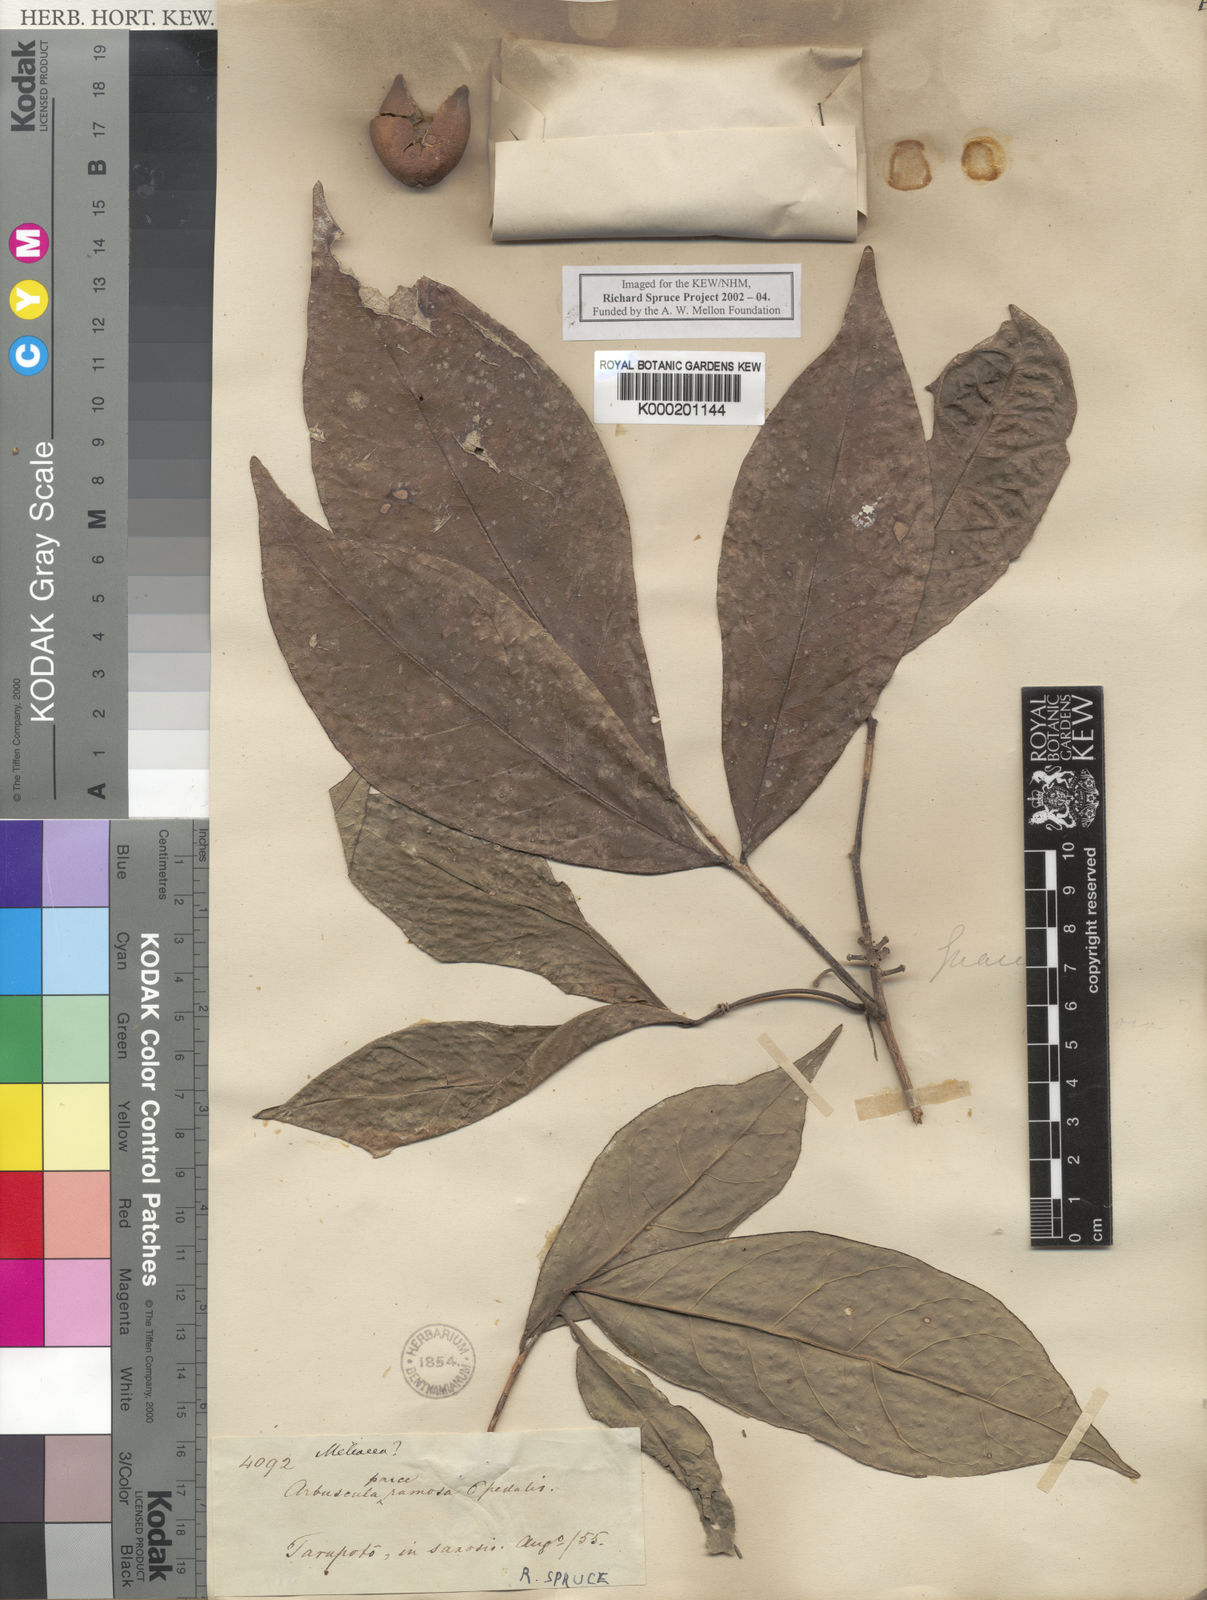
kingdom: Plantae
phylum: Tracheophyta
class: Magnoliopsida
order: Picramniales
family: Picramniaceae
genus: Nothotalisia
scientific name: Nothotalisia
